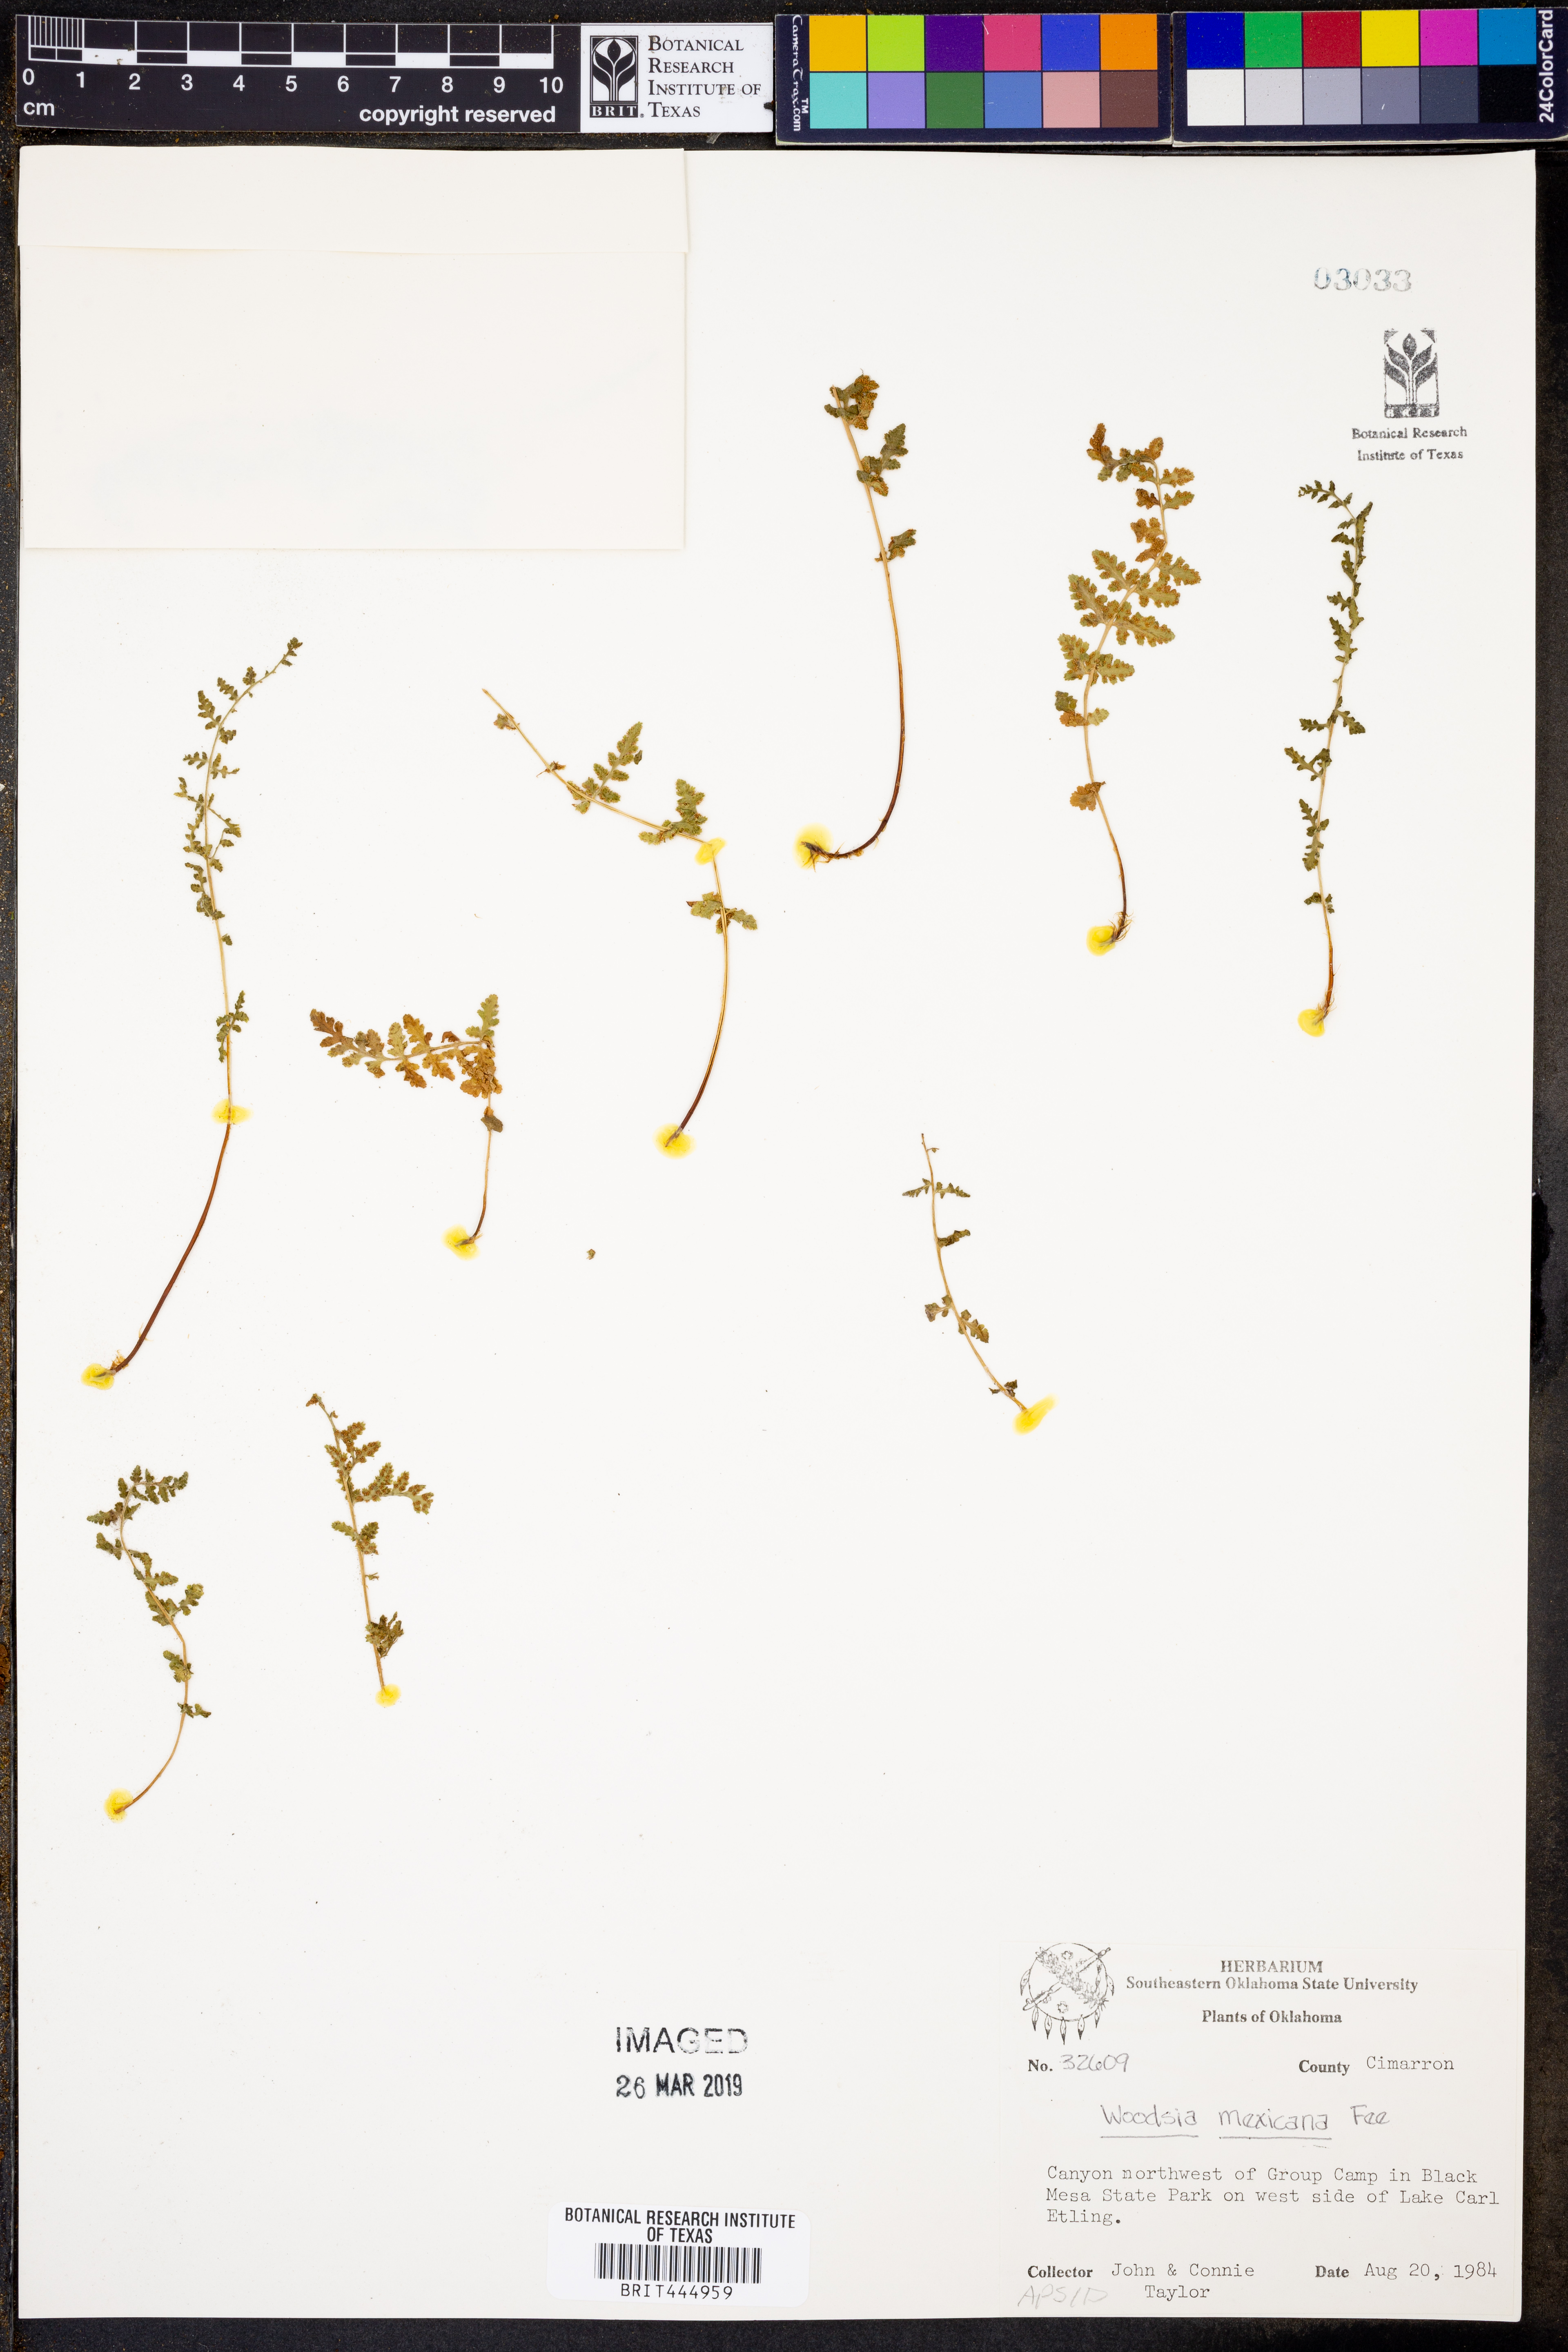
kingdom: Plantae
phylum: Tracheophyta
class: Polypodiopsida
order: Polypodiales
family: Woodsiaceae
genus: Physematium
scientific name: Physematium mexicanum
